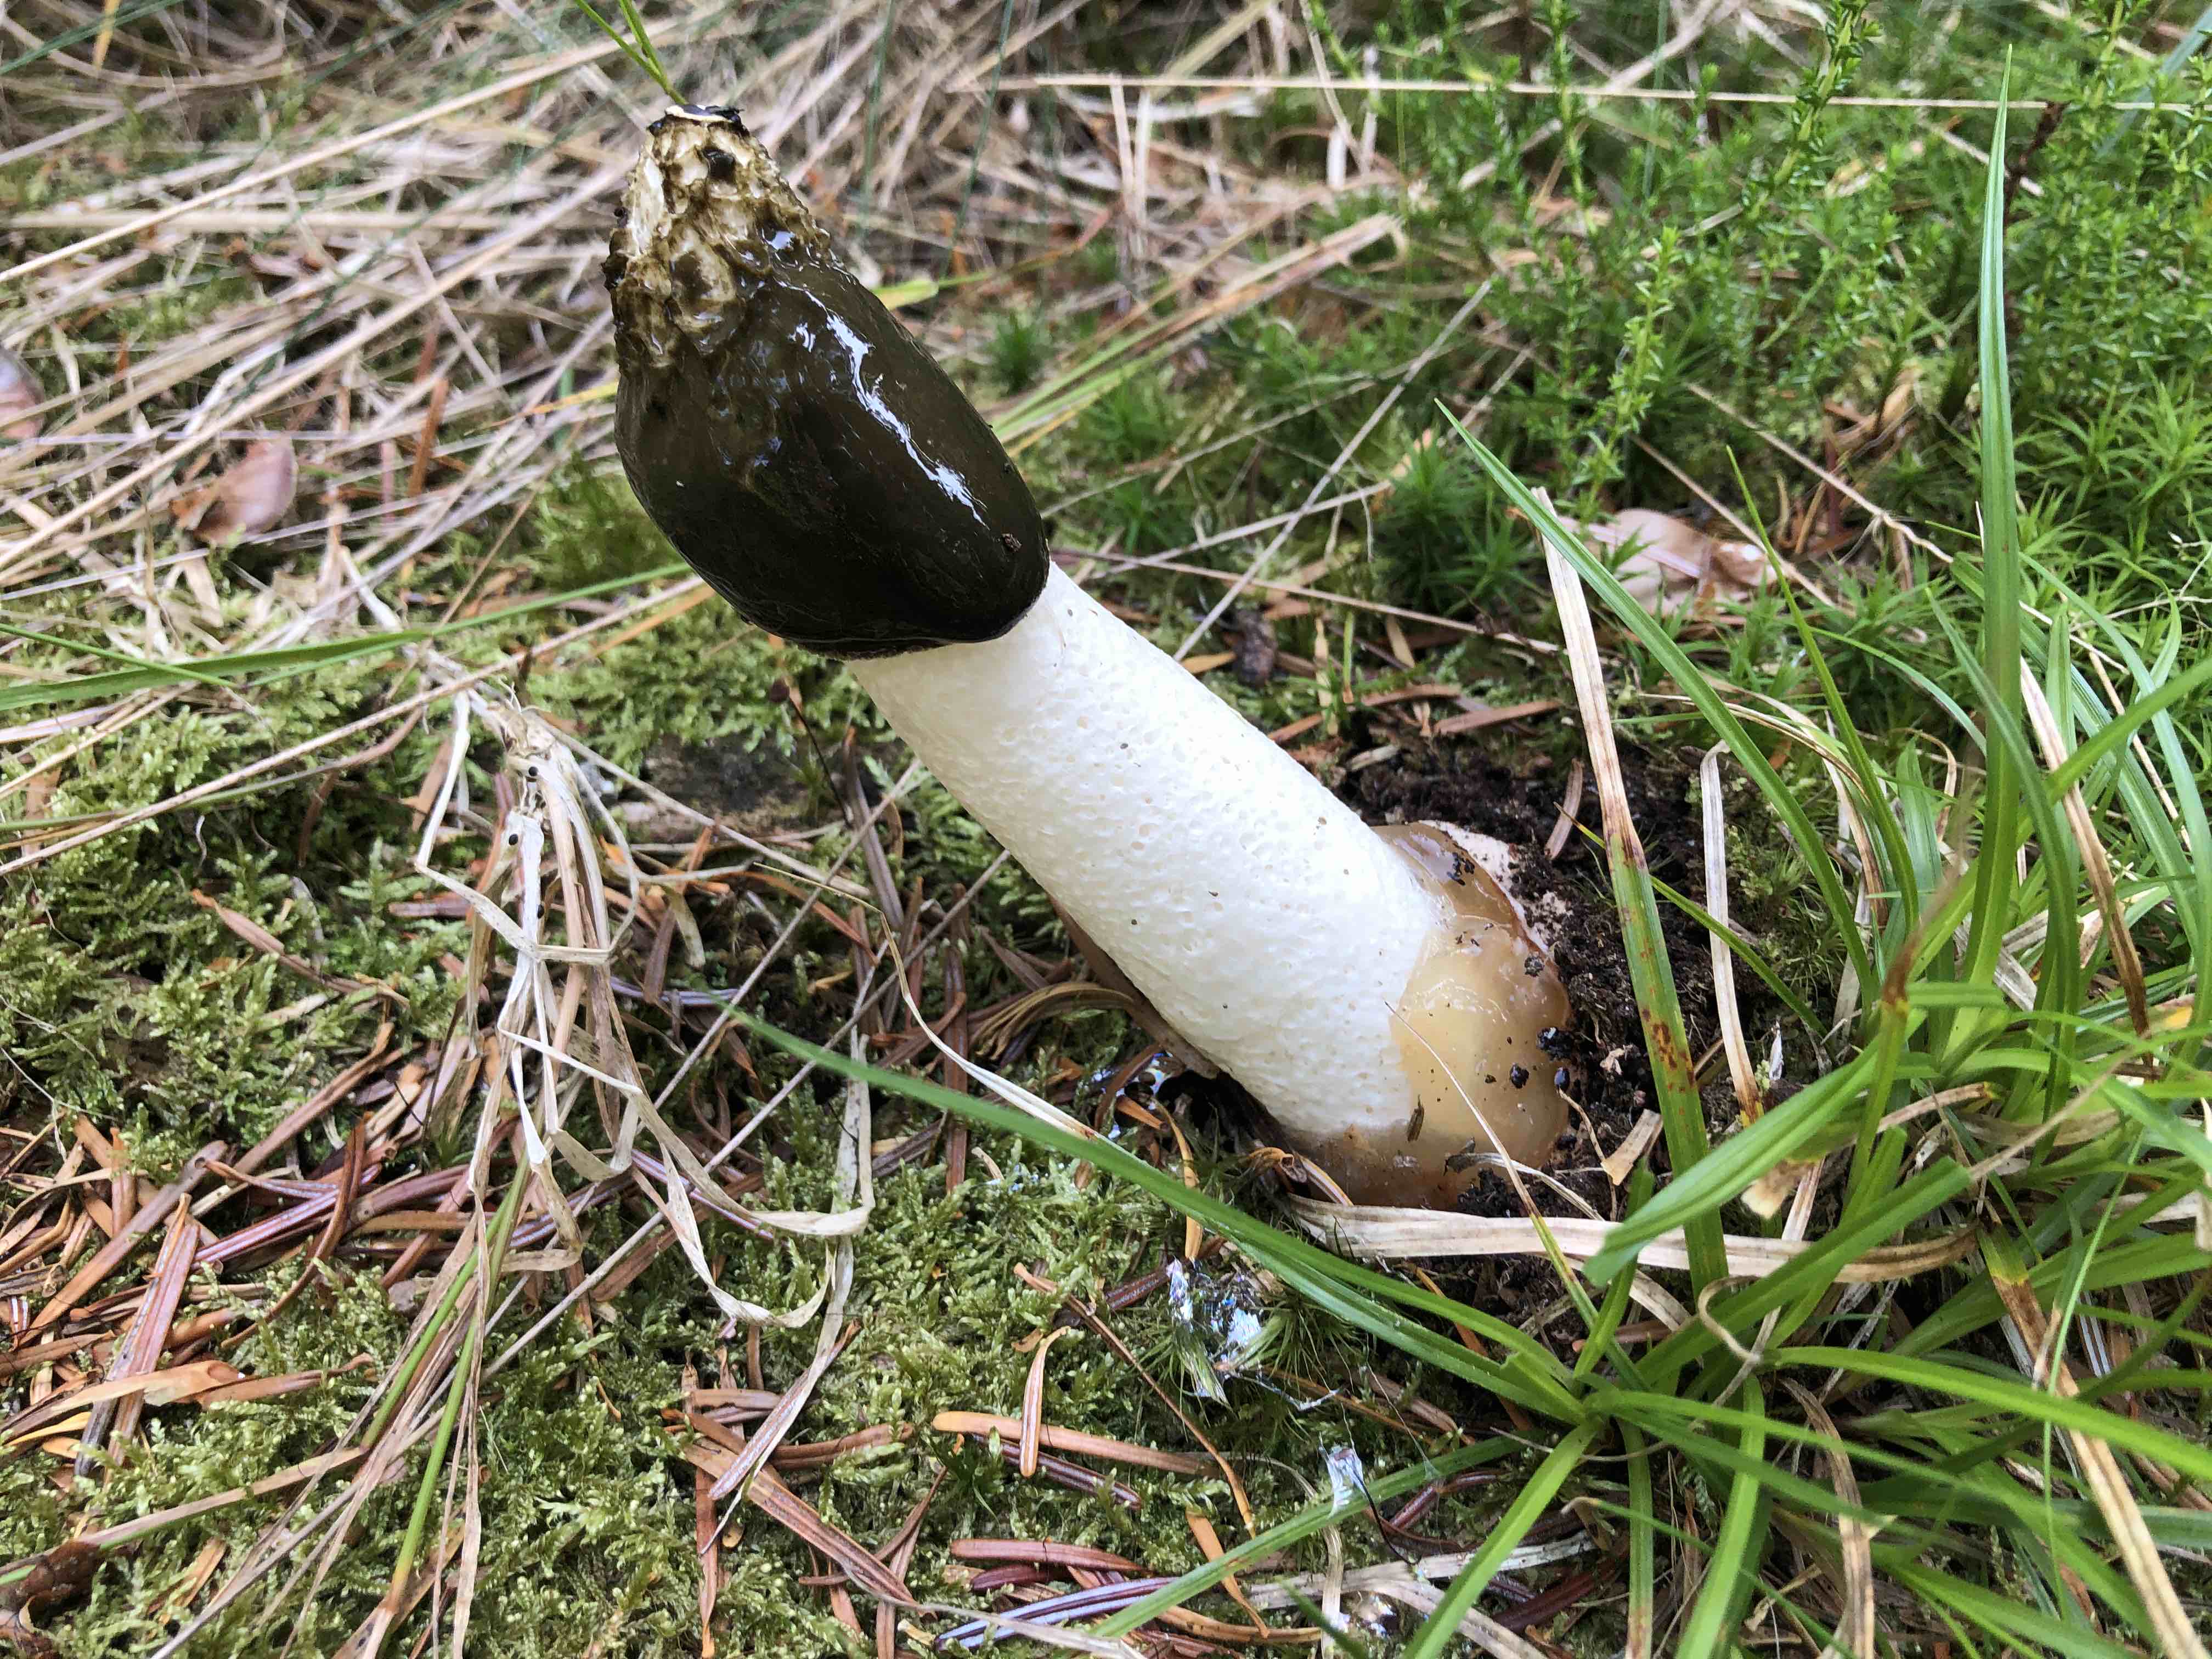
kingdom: Fungi
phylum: Basidiomycota
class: Agaricomycetes
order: Phallales
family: Phallaceae
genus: Phallus
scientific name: Phallus impudicus
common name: almindelig stinksvamp
